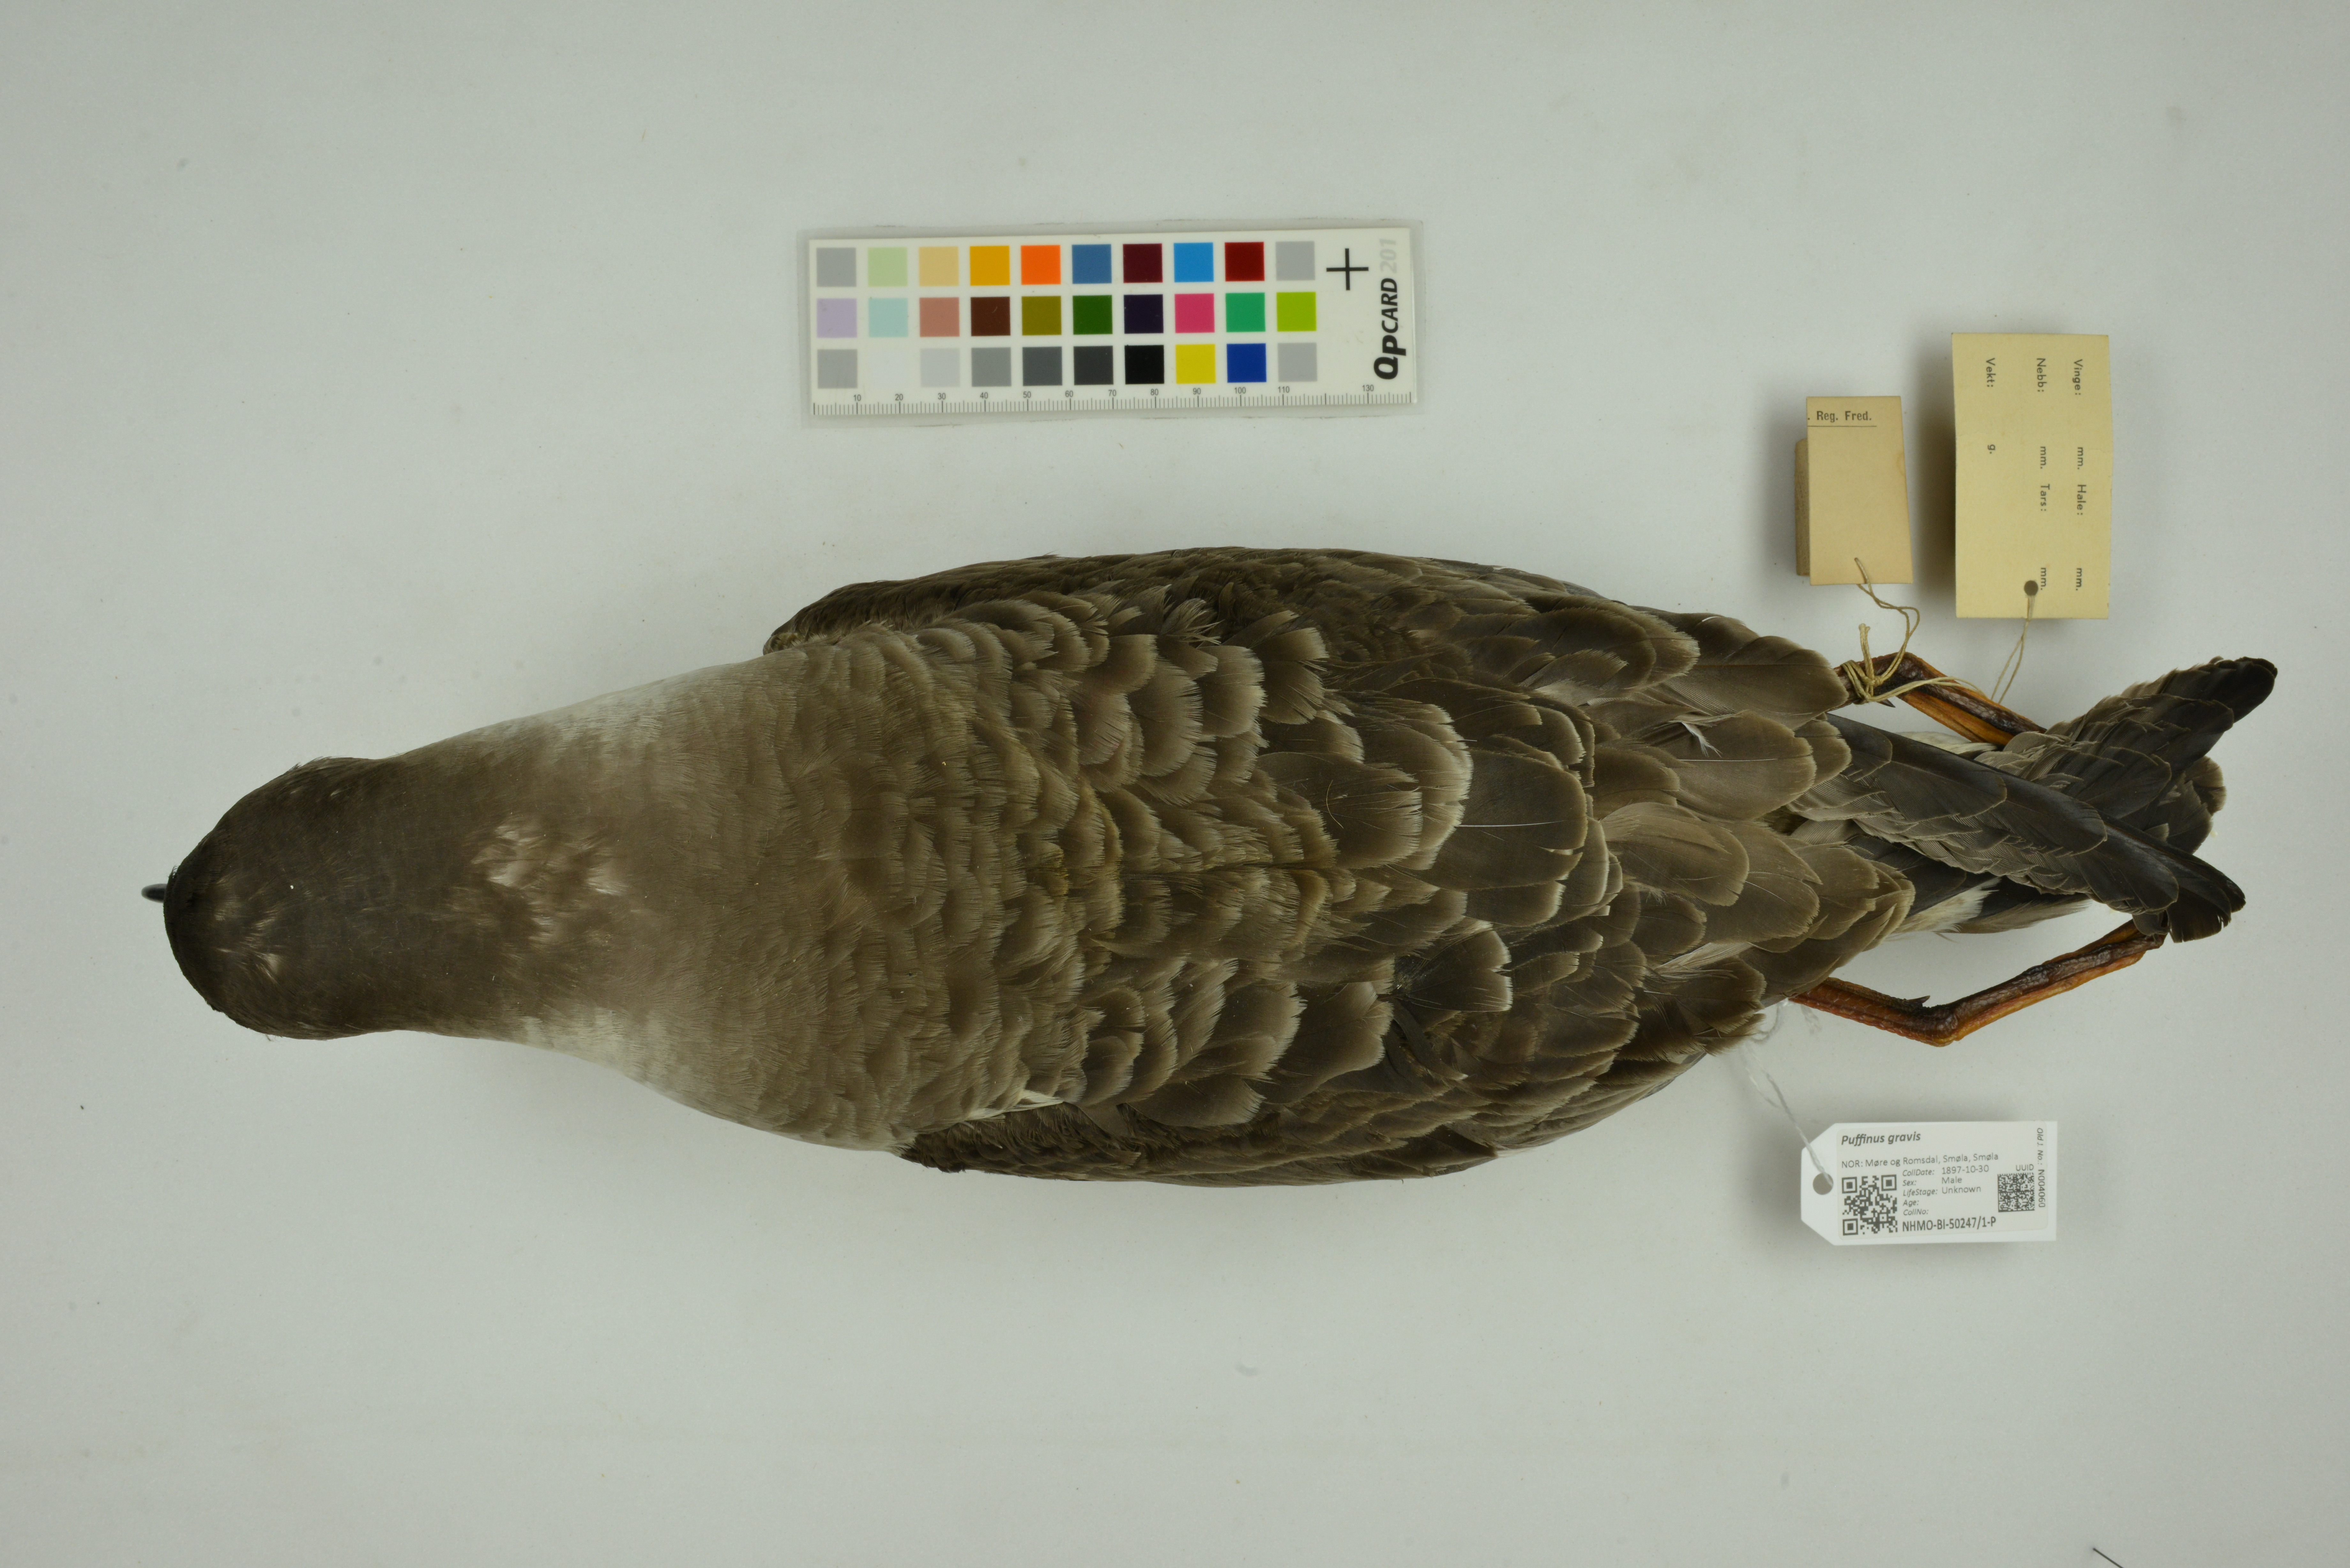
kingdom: Animalia
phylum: Chordata
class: Aves
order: Procellariiformes
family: Procellariidae
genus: Puffinus
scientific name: Puffinus gravis
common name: Great shearwater
